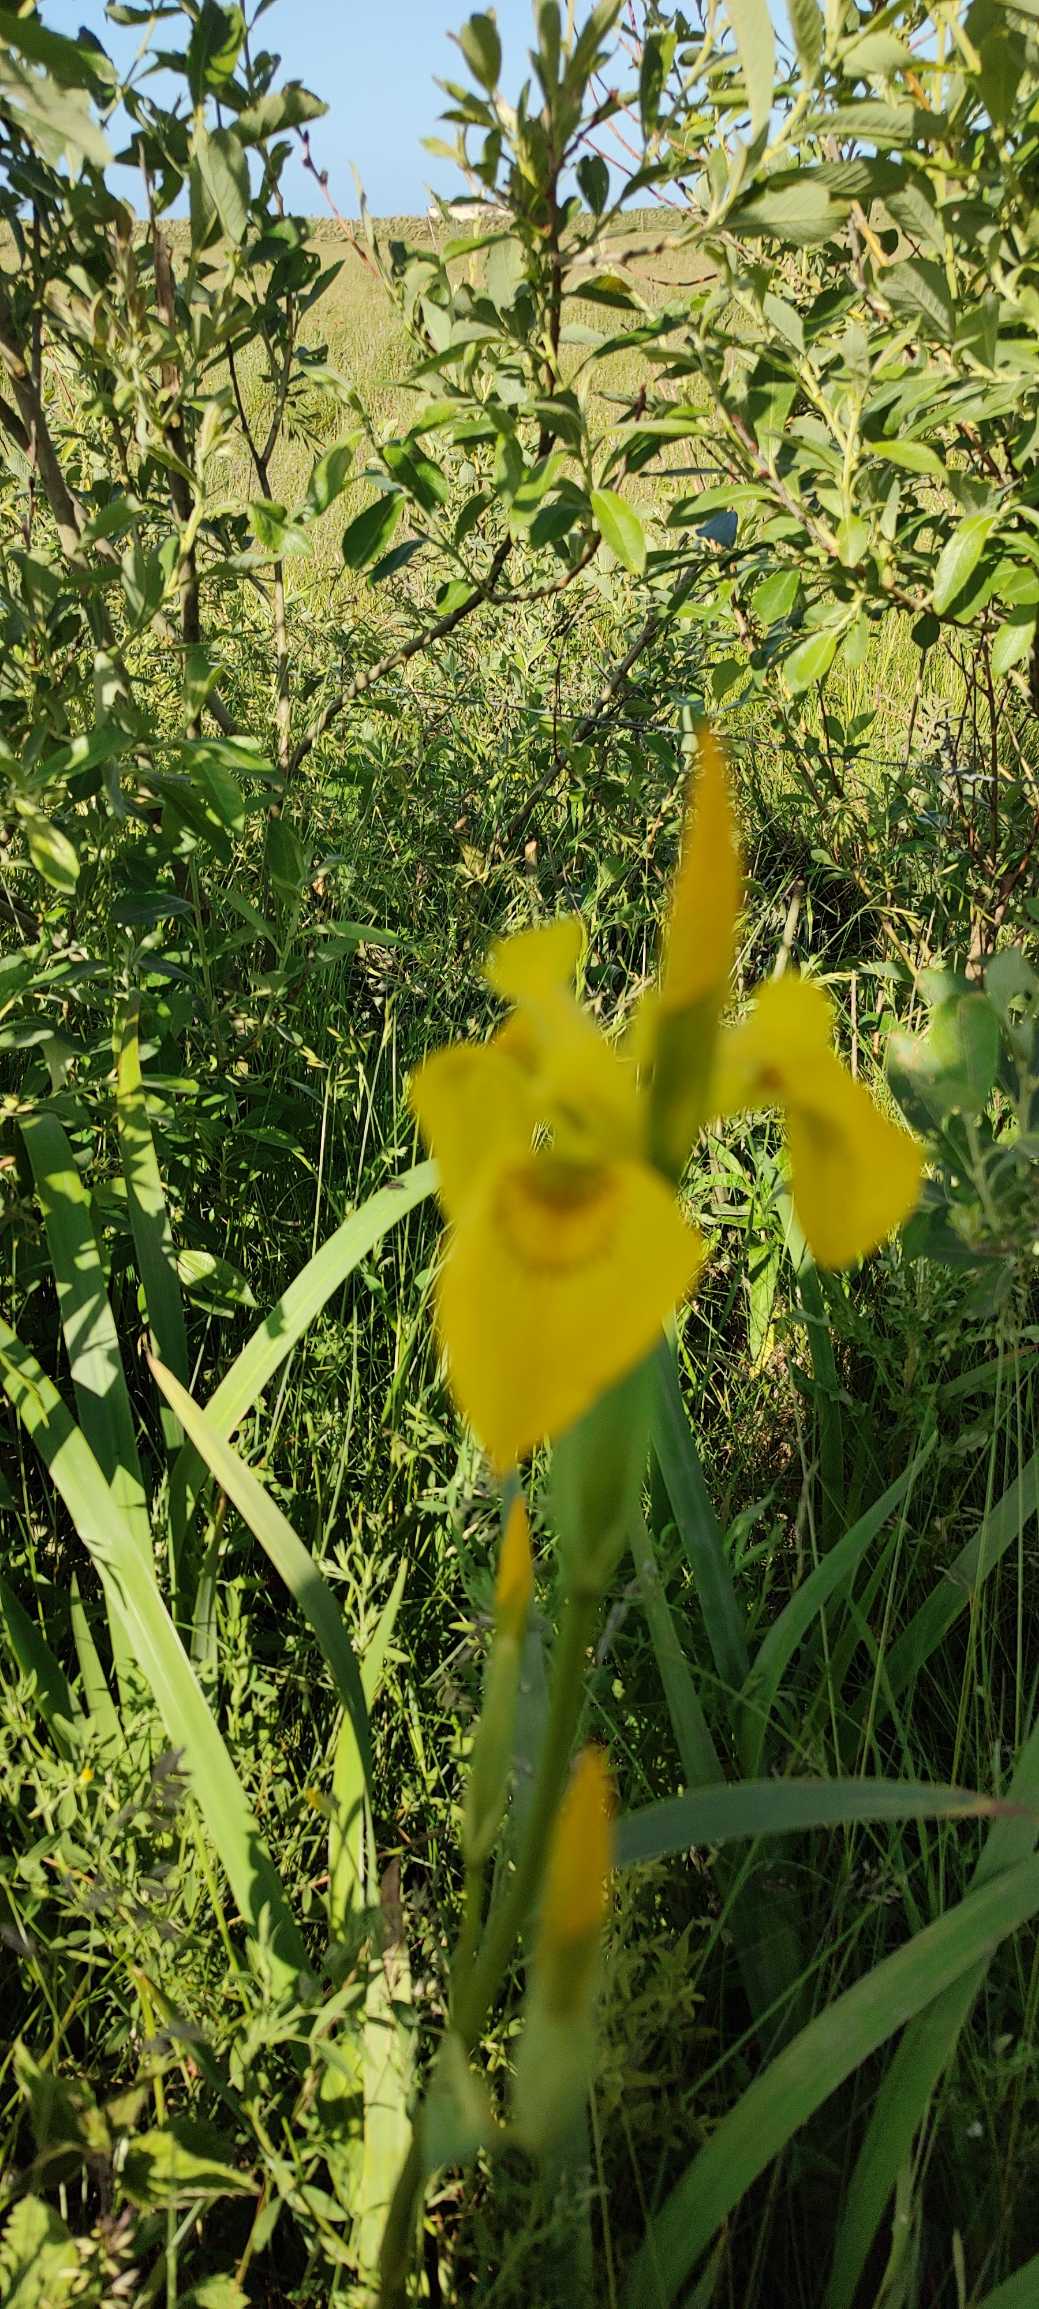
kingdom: Plantae
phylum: Tracheophyta
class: Liliopsida
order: Asparagales
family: Iridaceae
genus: Iris
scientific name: Iris pseudacorus
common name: Gul iris
